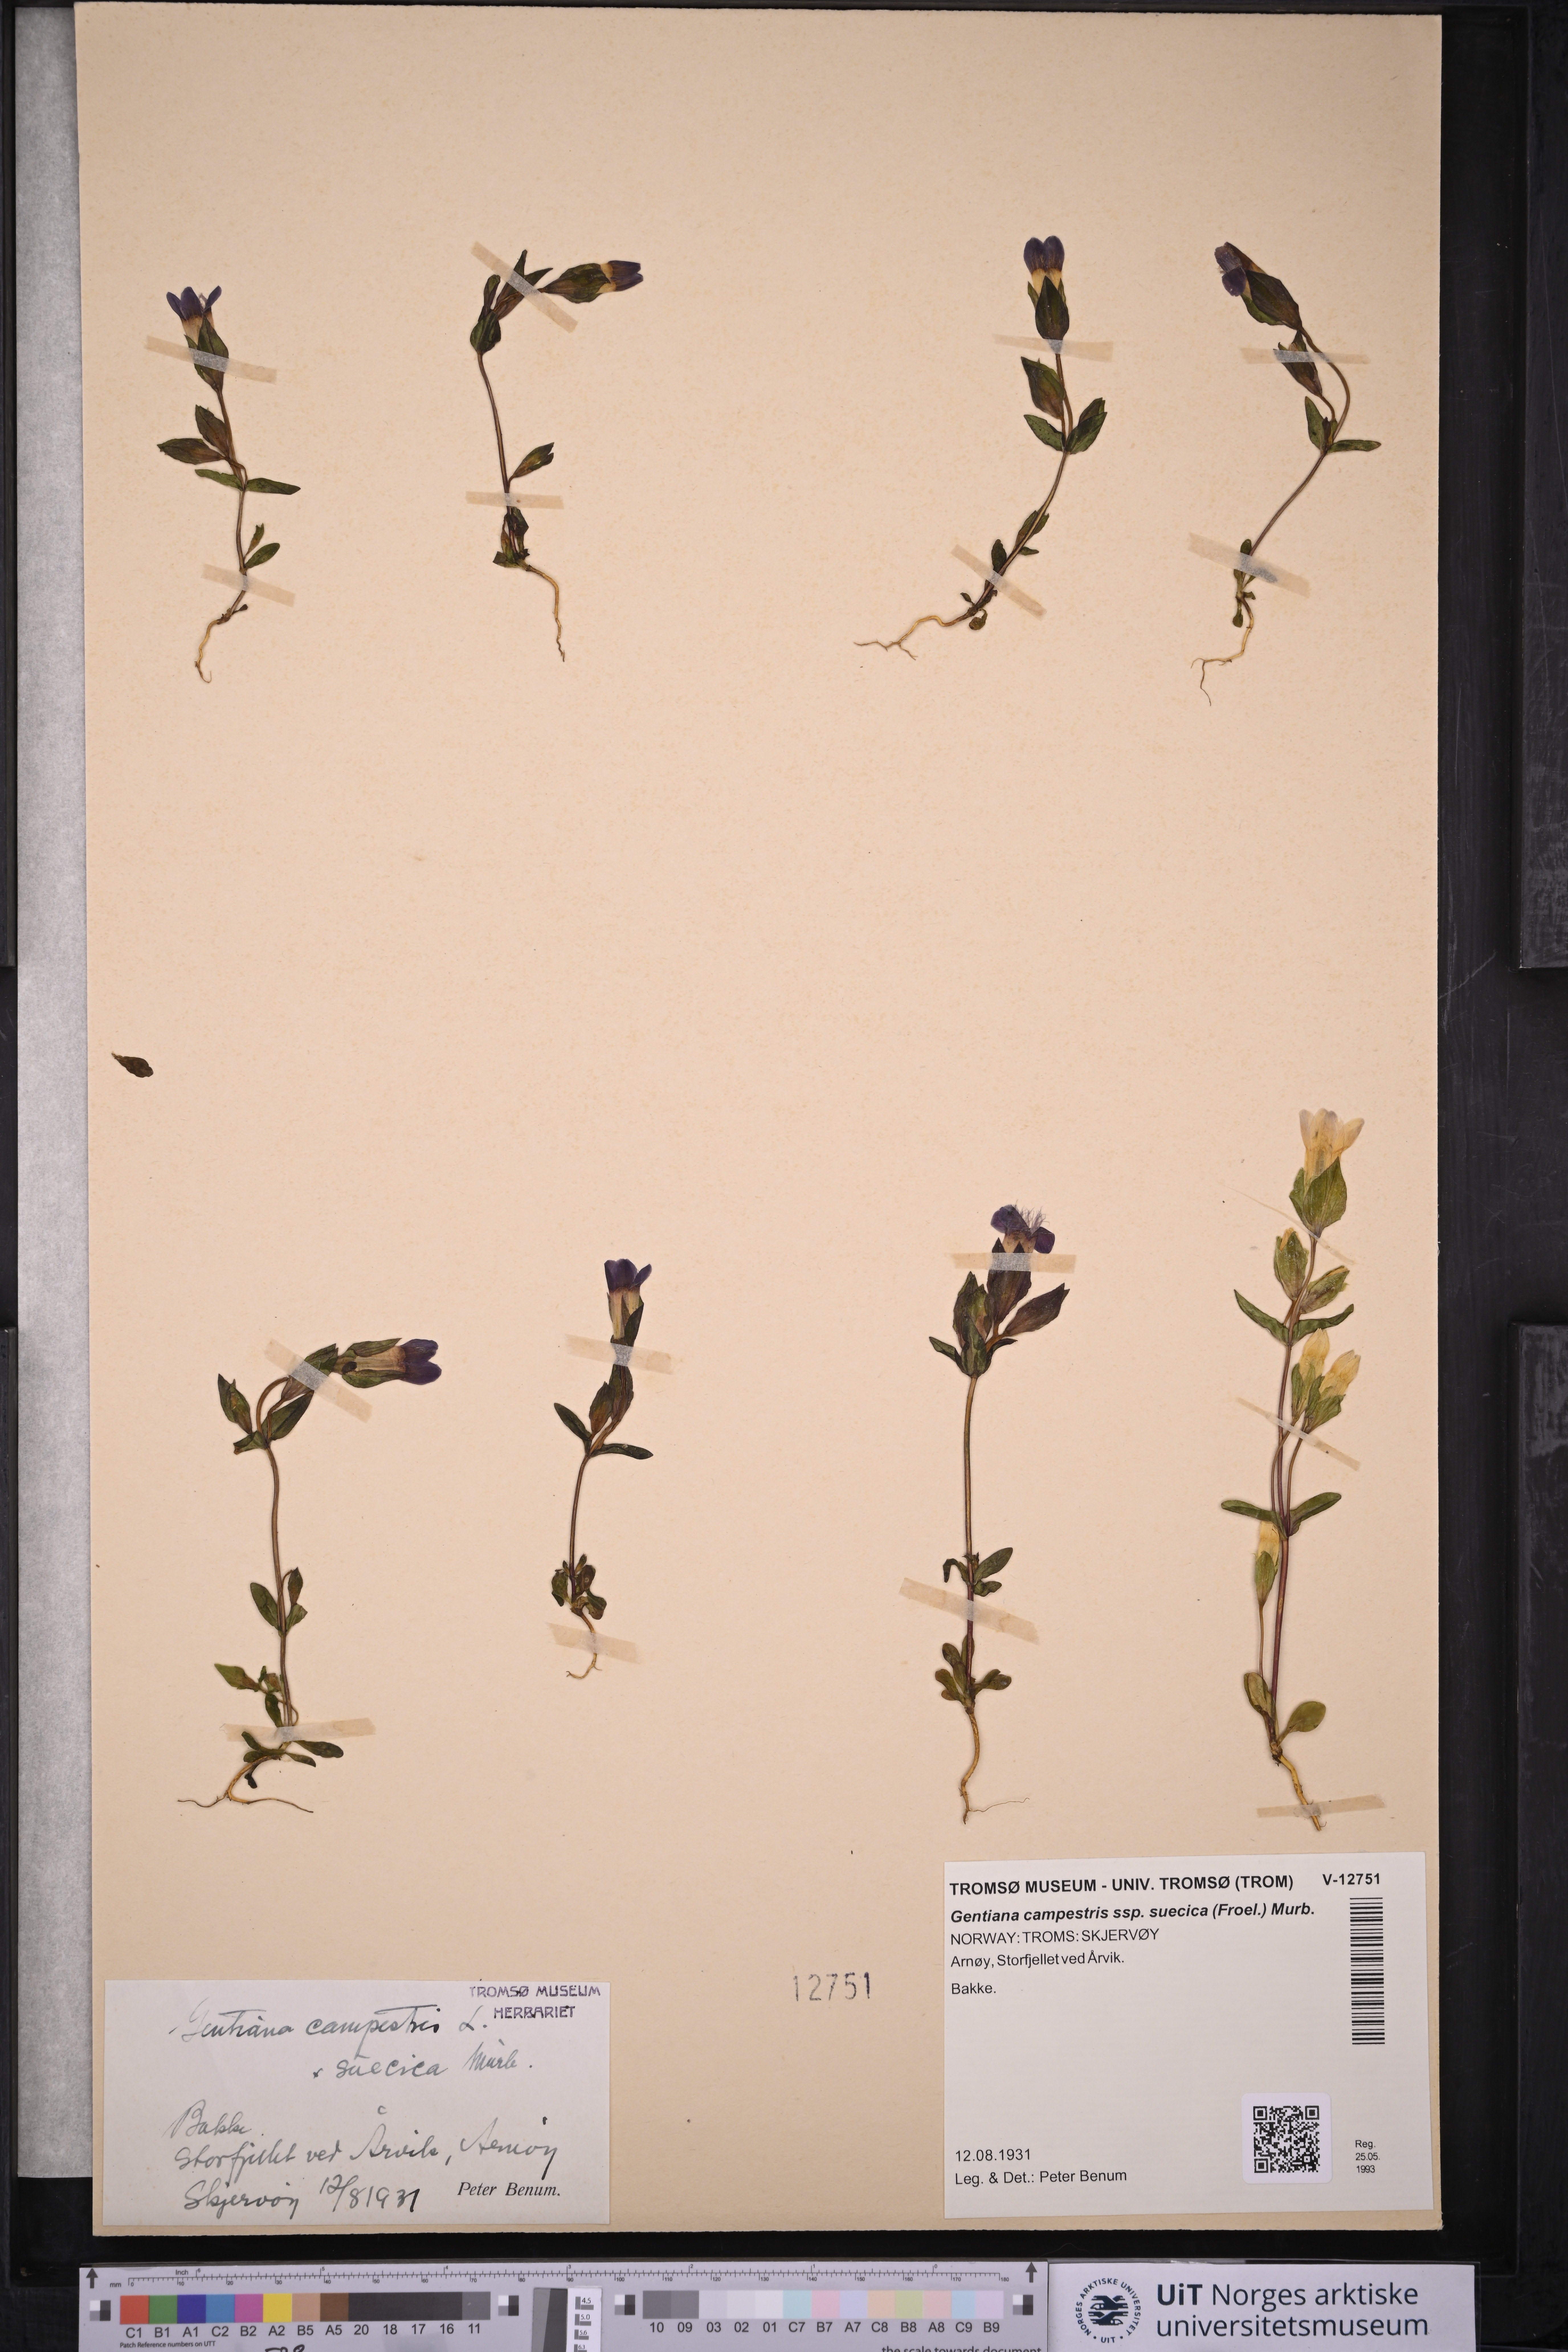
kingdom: Plantae
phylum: Tracheophyta
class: Magnoliopsida
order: Gentianales
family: Gentianaceae
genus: Gentianella
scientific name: Gentianella campestris
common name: Field gentian
